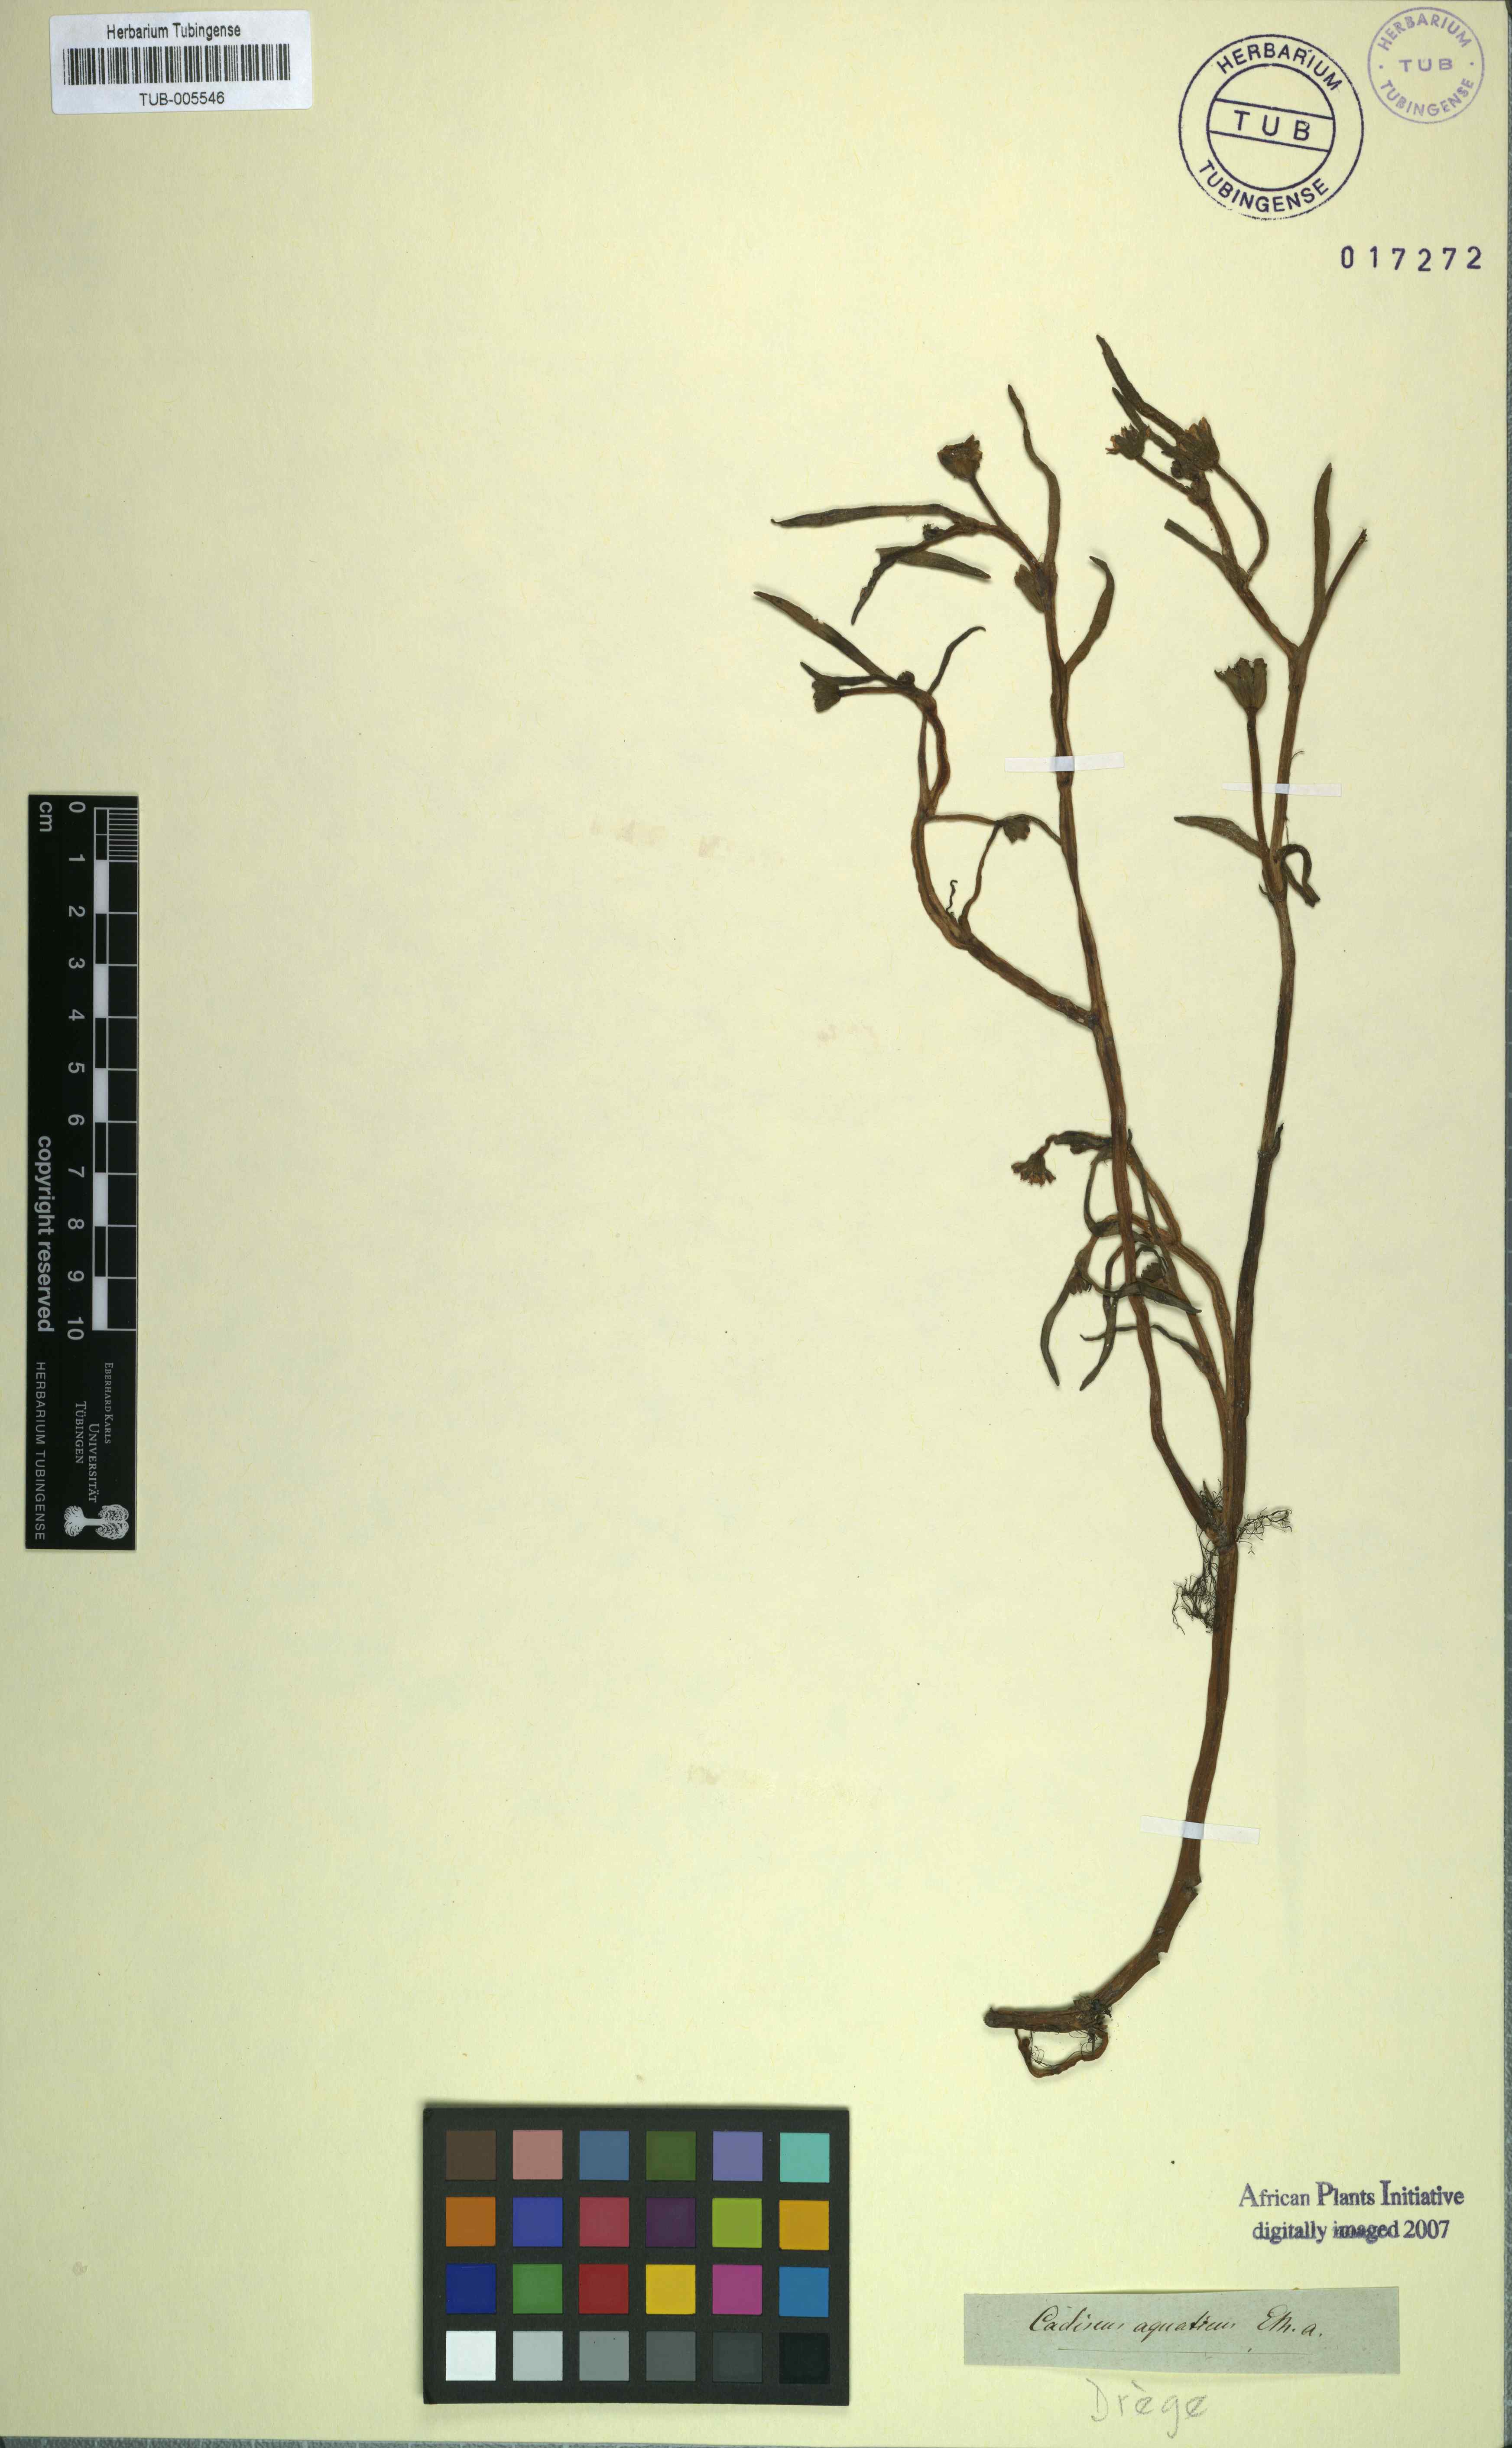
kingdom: Plantae
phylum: Tracheophyta
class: Magnoliopsida
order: Asterales
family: Asteraceae
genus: Cadiscus
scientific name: Cadiscus aquaticus
